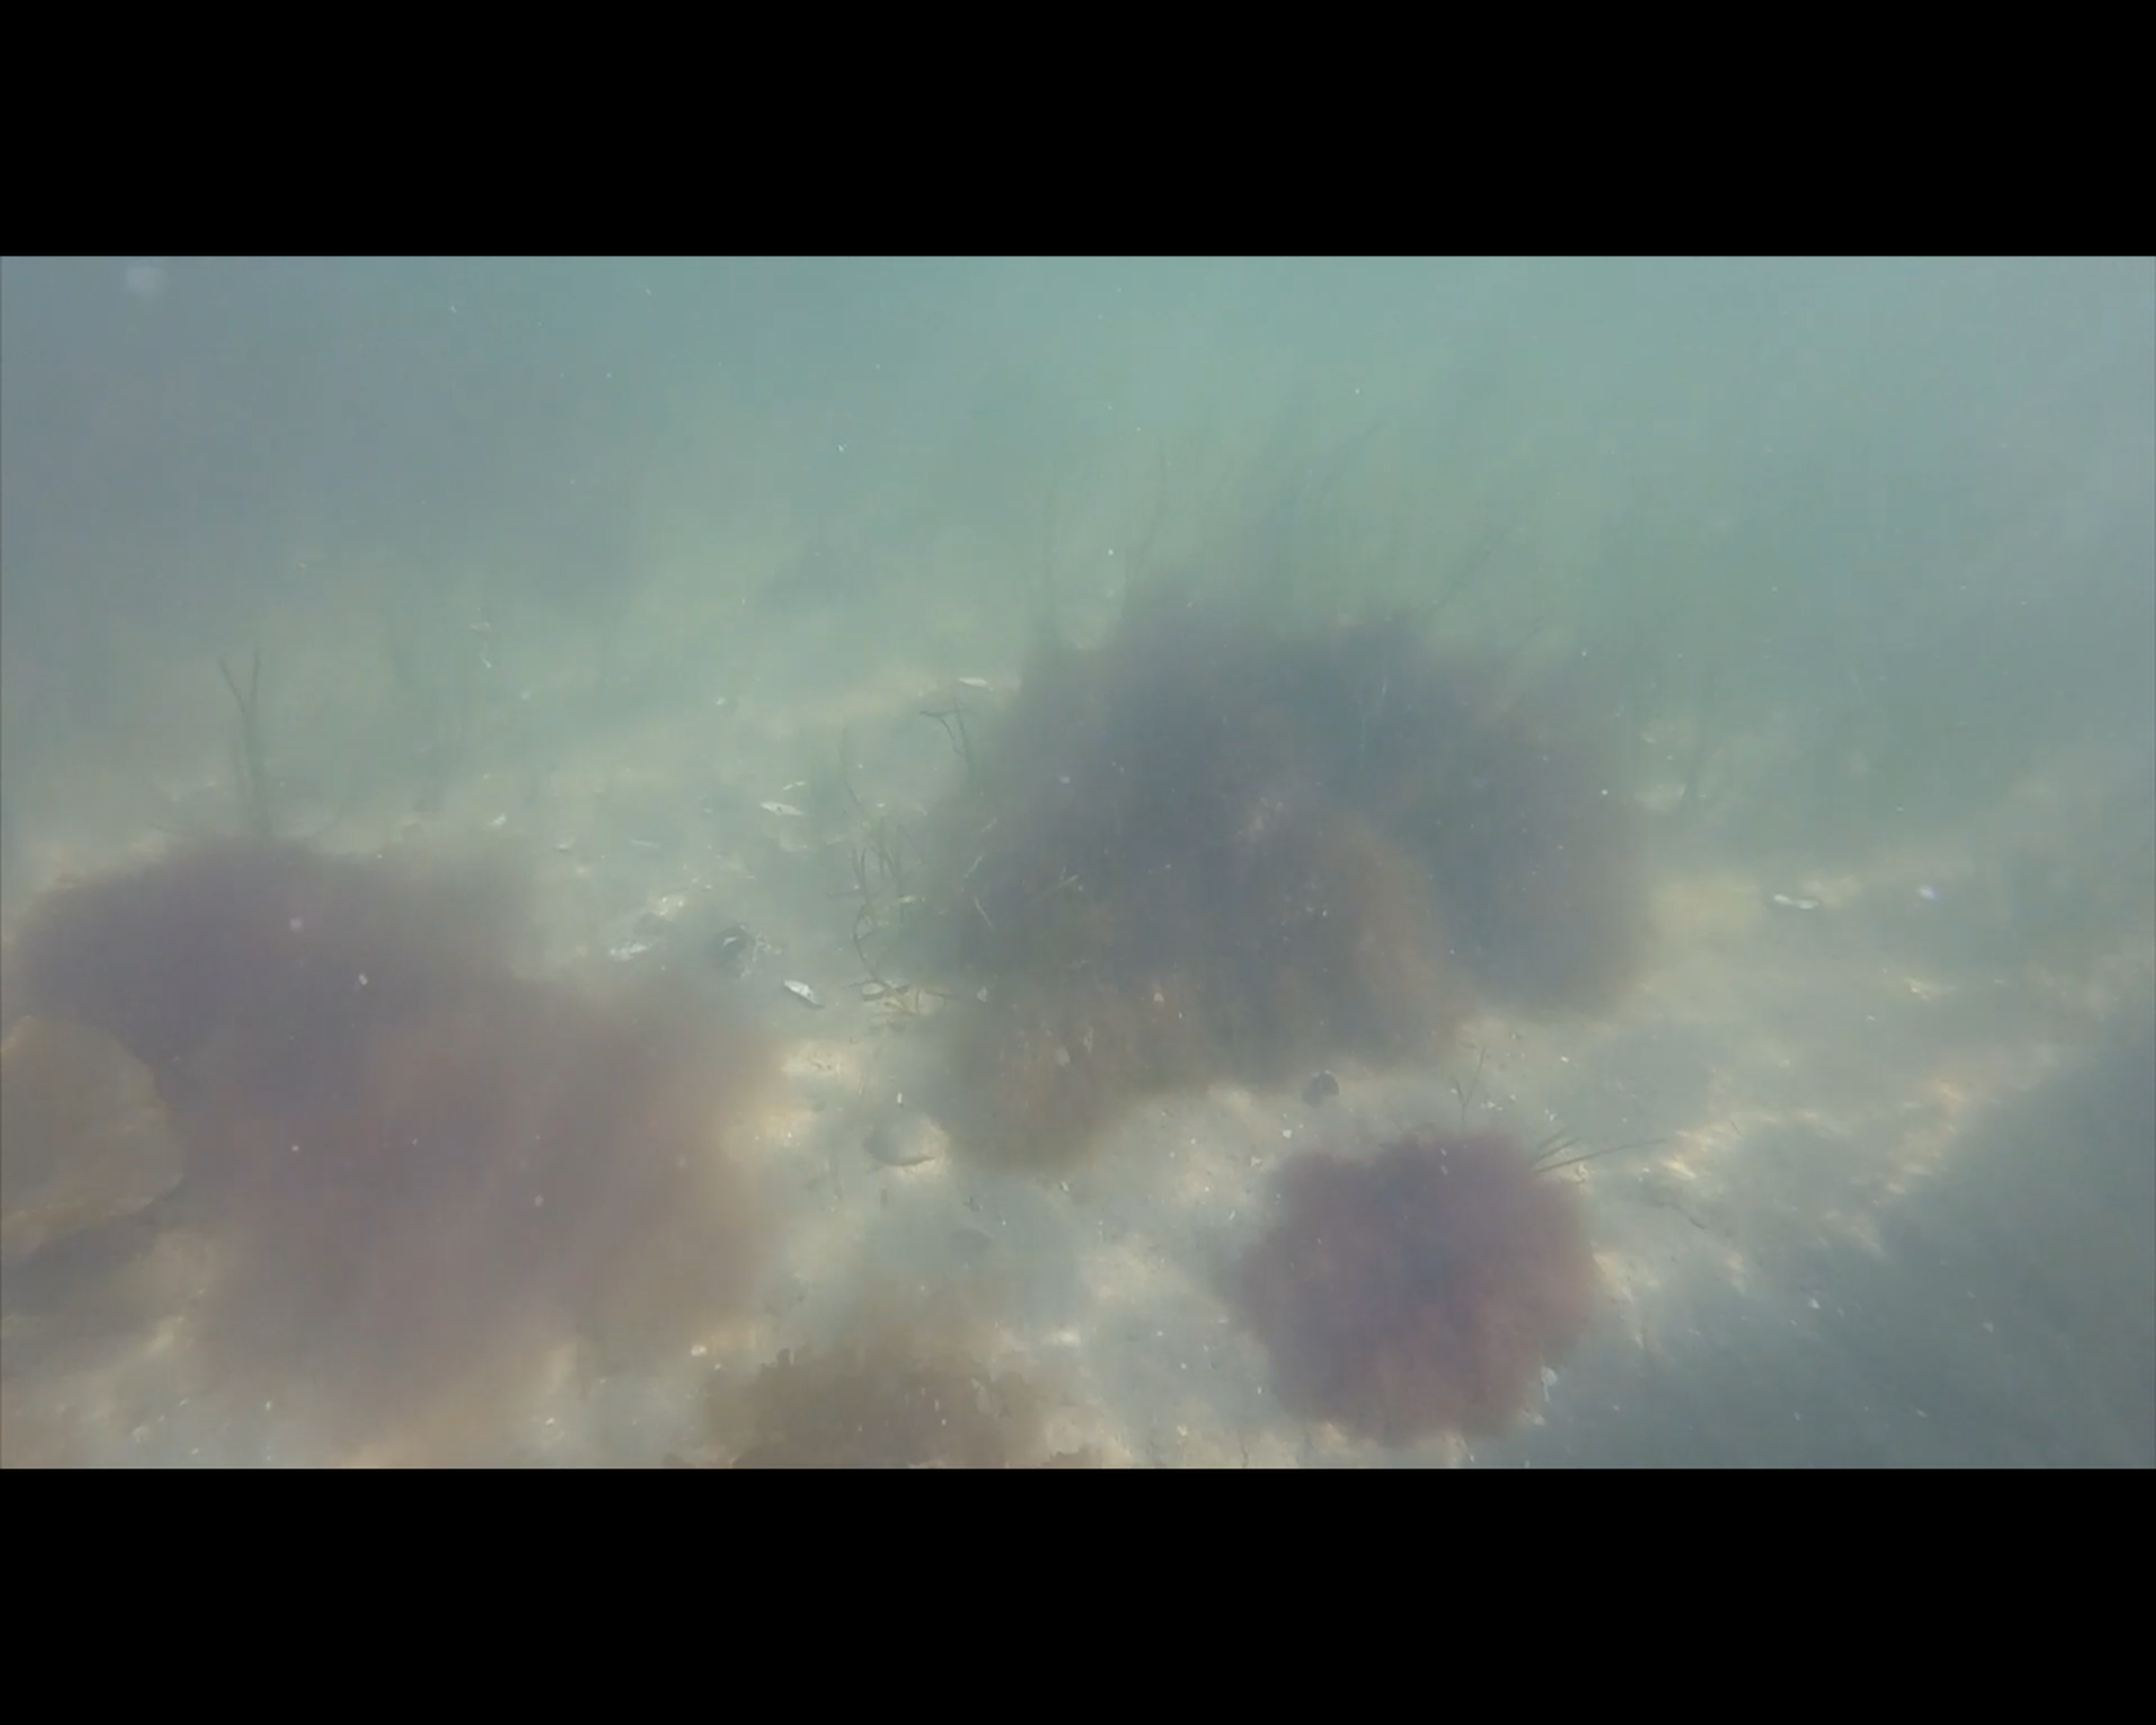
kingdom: Plantae
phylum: Tracheophyta
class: Liliopsida
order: Alismatales
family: Zosteraceae
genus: Zostera
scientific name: Zostera marina
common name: Eelgrass
